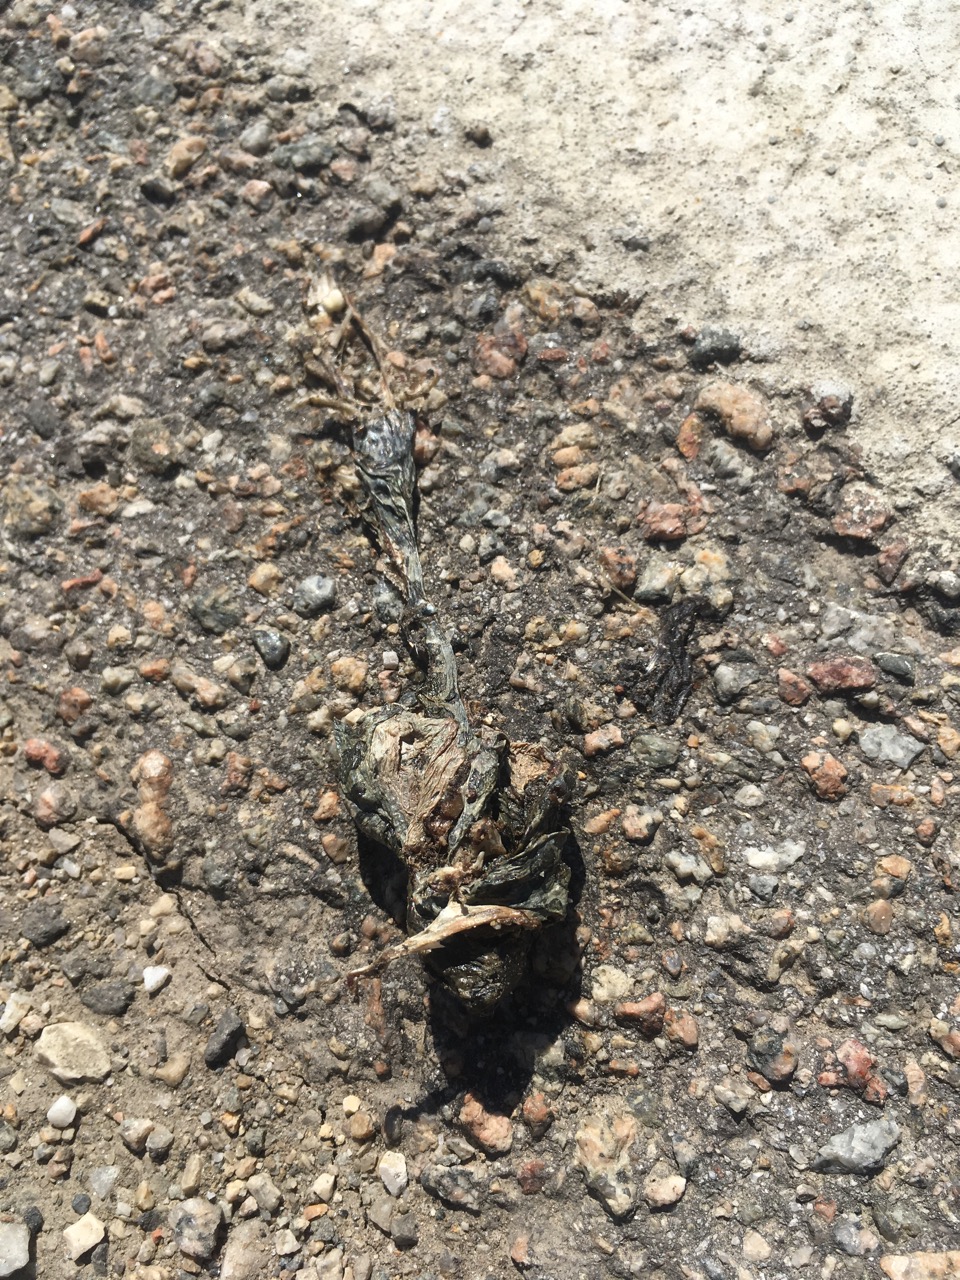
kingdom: Animalia
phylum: Chordata
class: Amphibia
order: Anura
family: Bufonidae
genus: Bufotes
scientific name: Bufotes viridis
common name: European green toad
